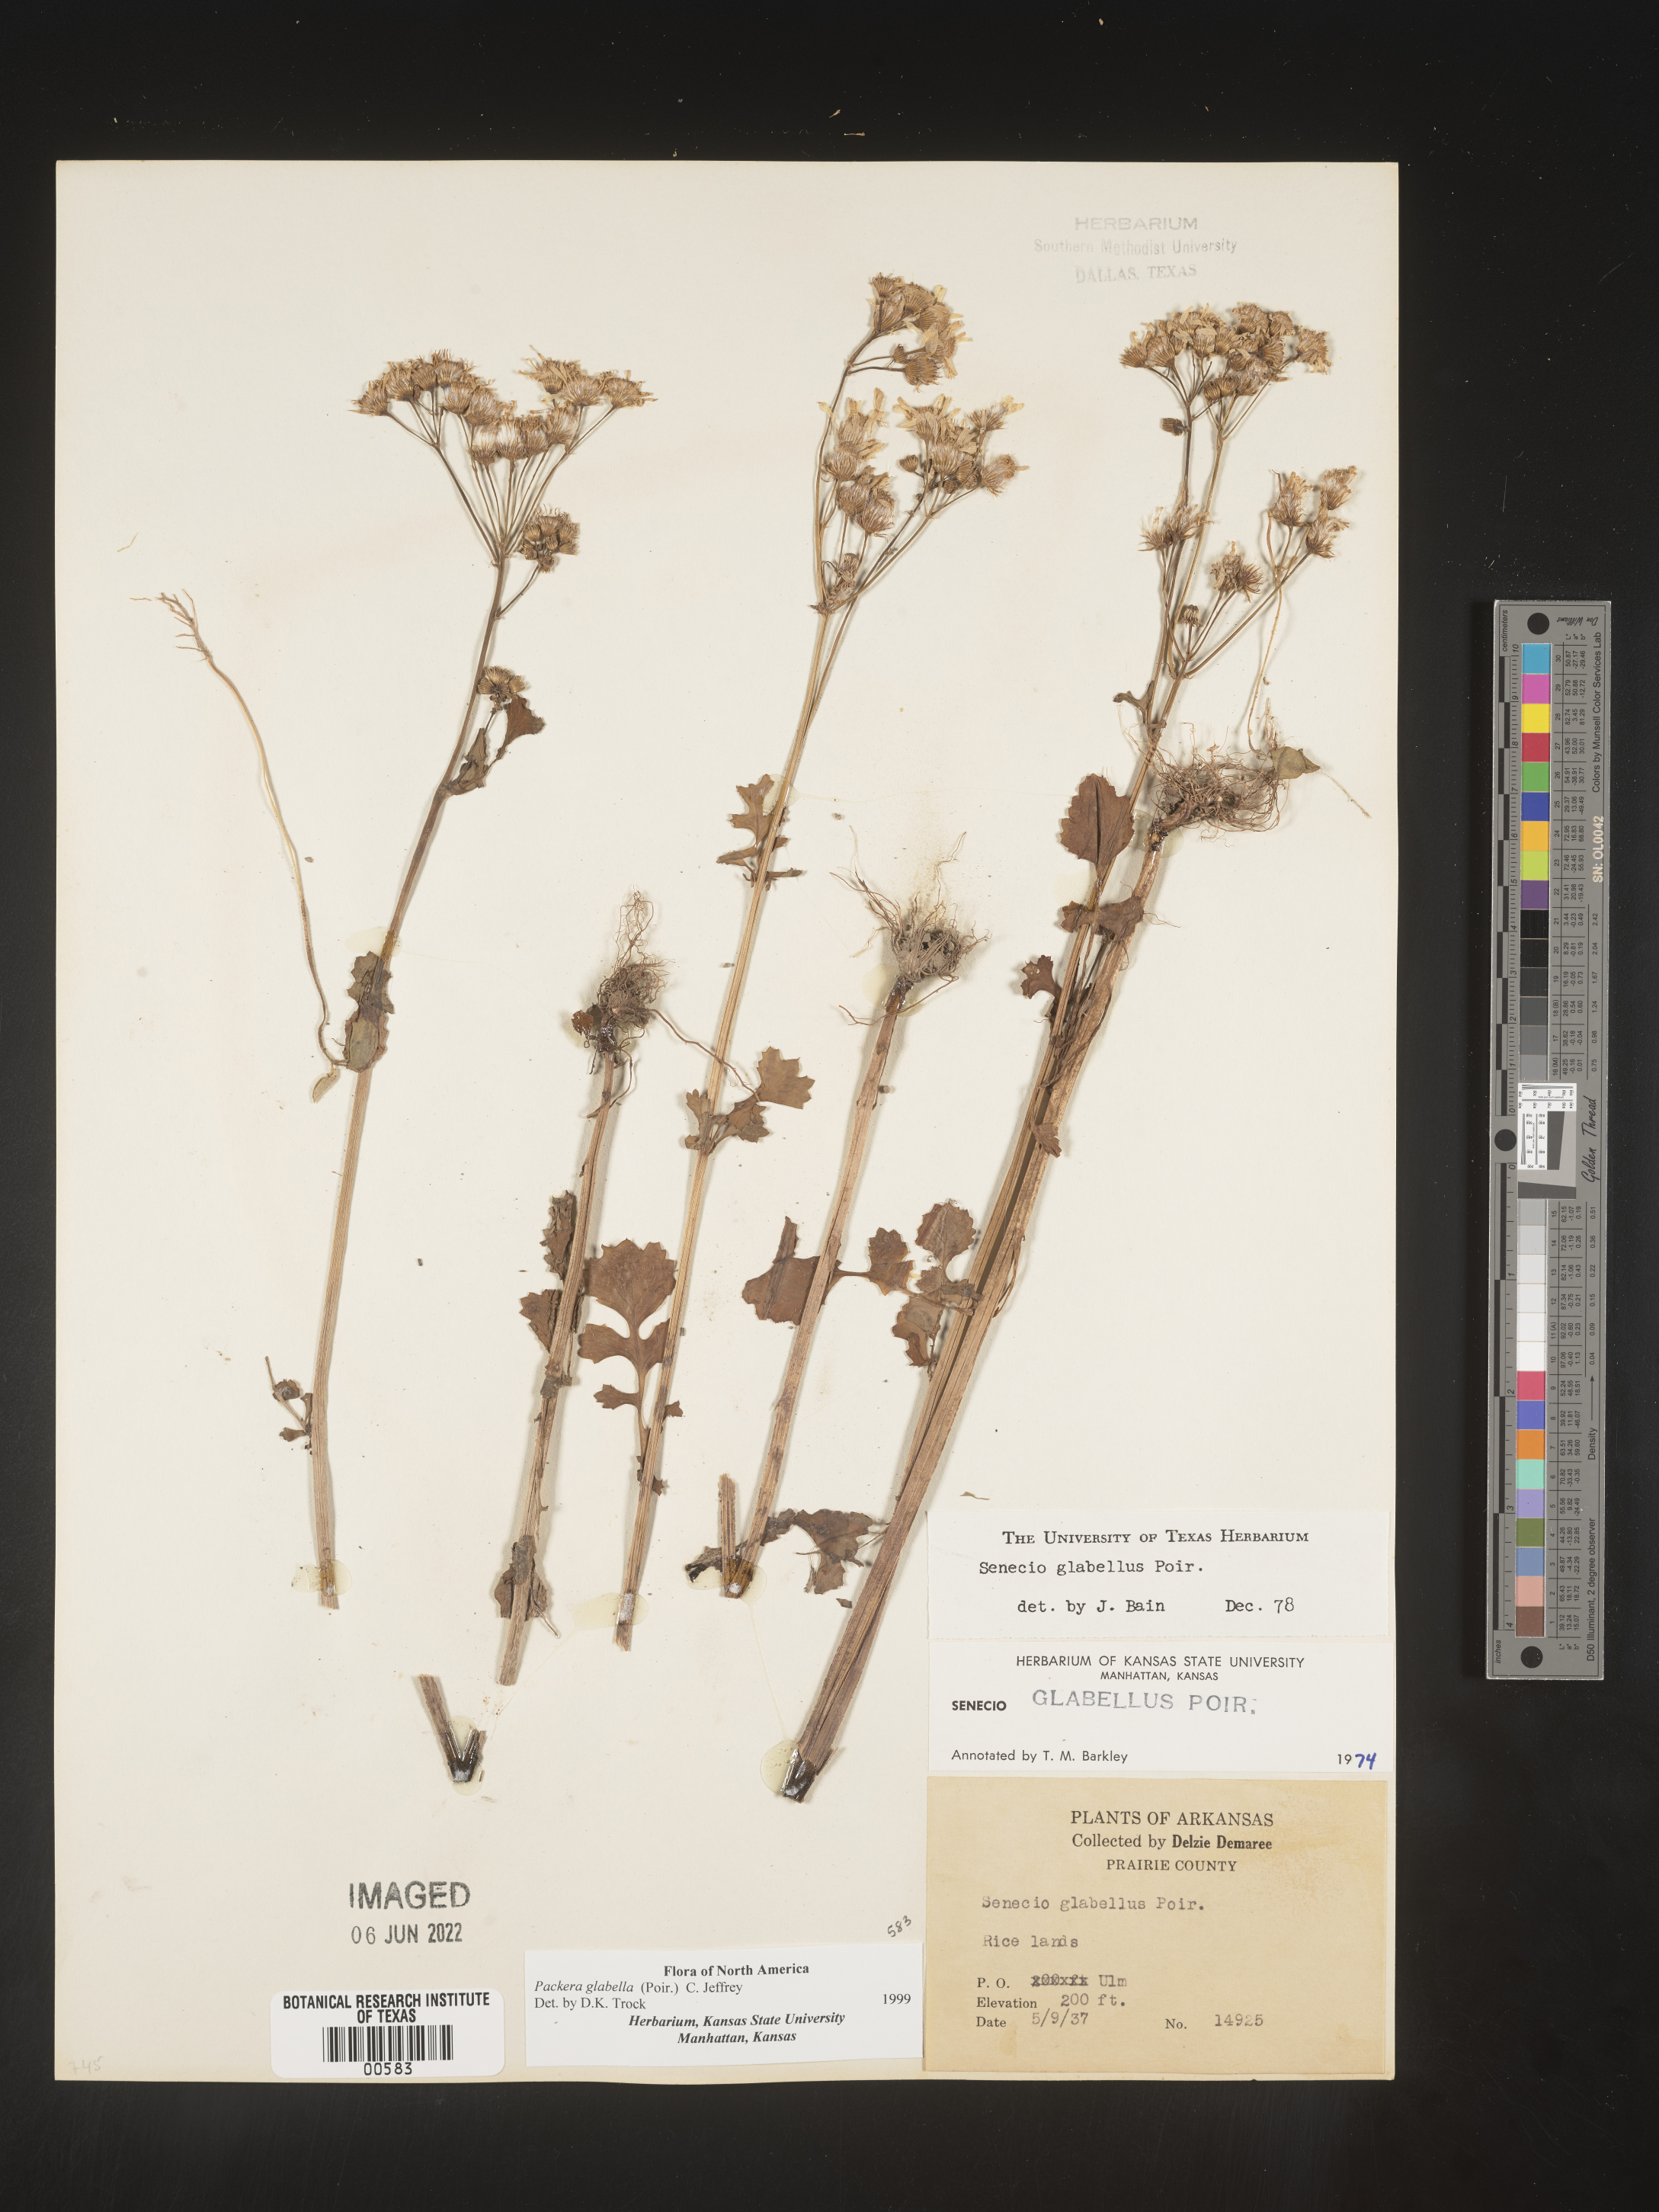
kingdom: Plantae
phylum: Tracheophyta
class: Magnoliopsida
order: Asterales
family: Asteraceae
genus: Packera
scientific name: Packera glabella
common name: Butterweed
